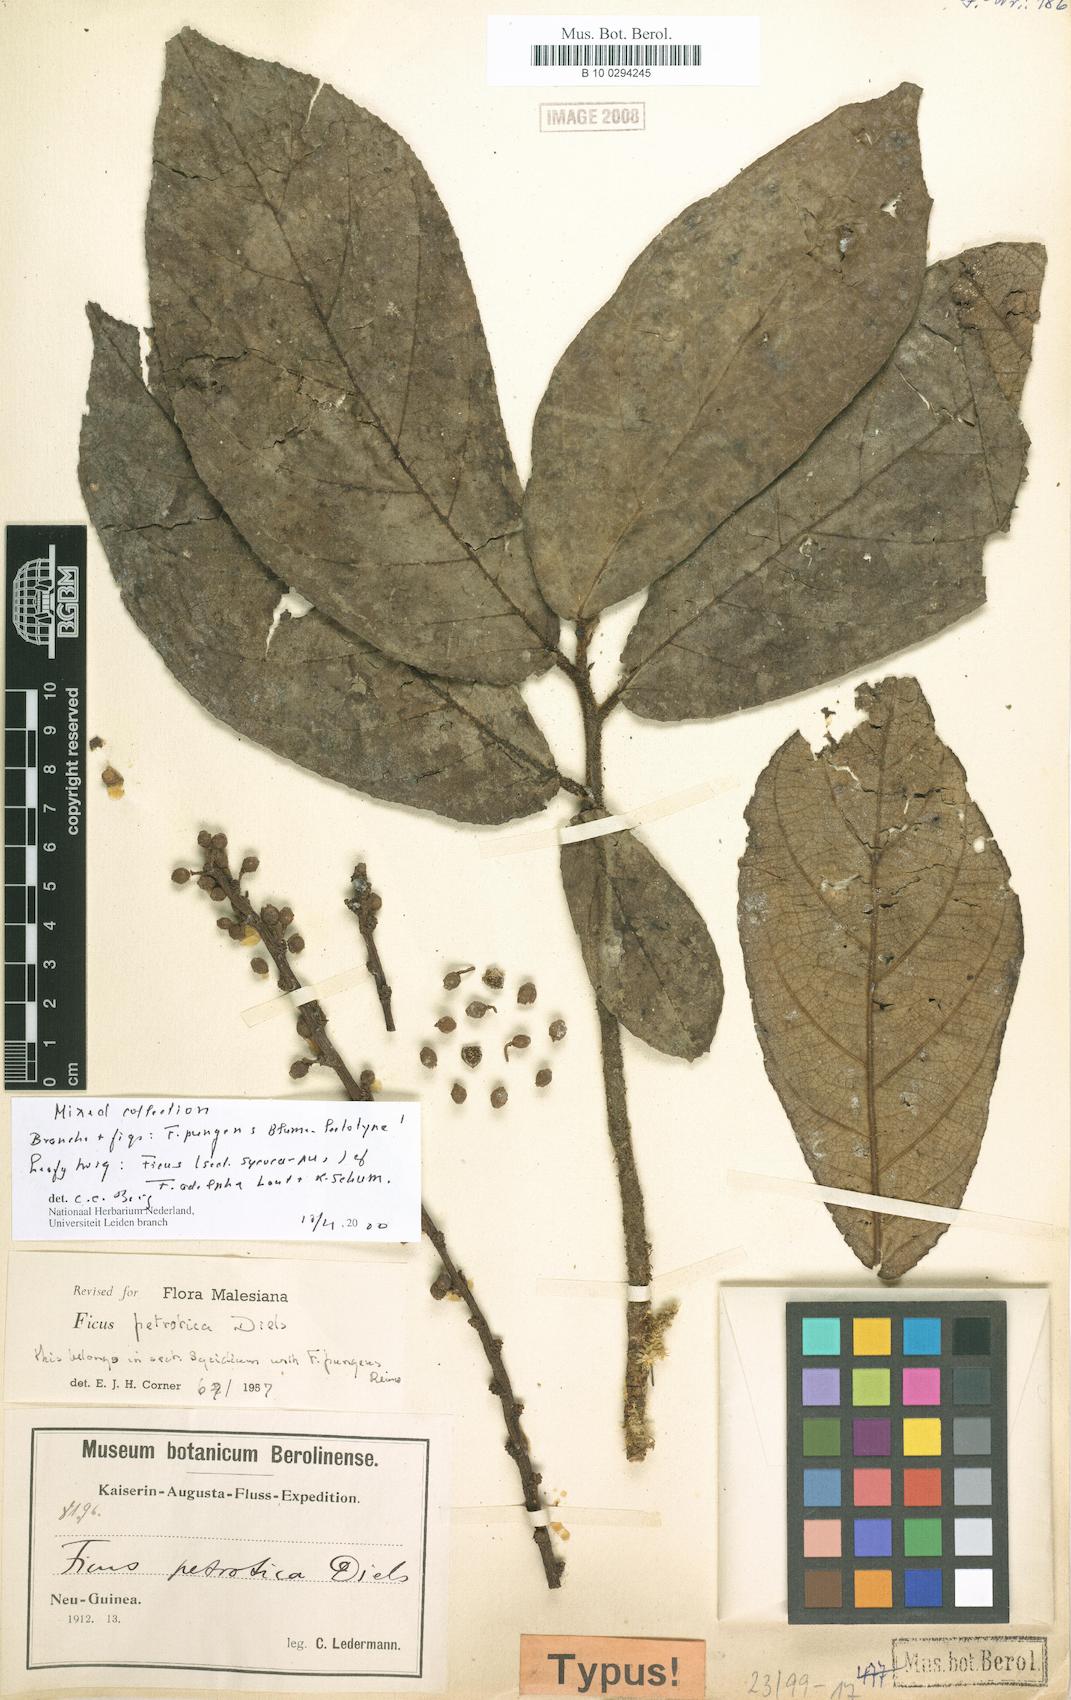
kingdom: Plantae
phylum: Tracheophyta
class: Magnoliopsida
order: Rosales
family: Moraceae
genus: Ficus
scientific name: Ficus pungens
